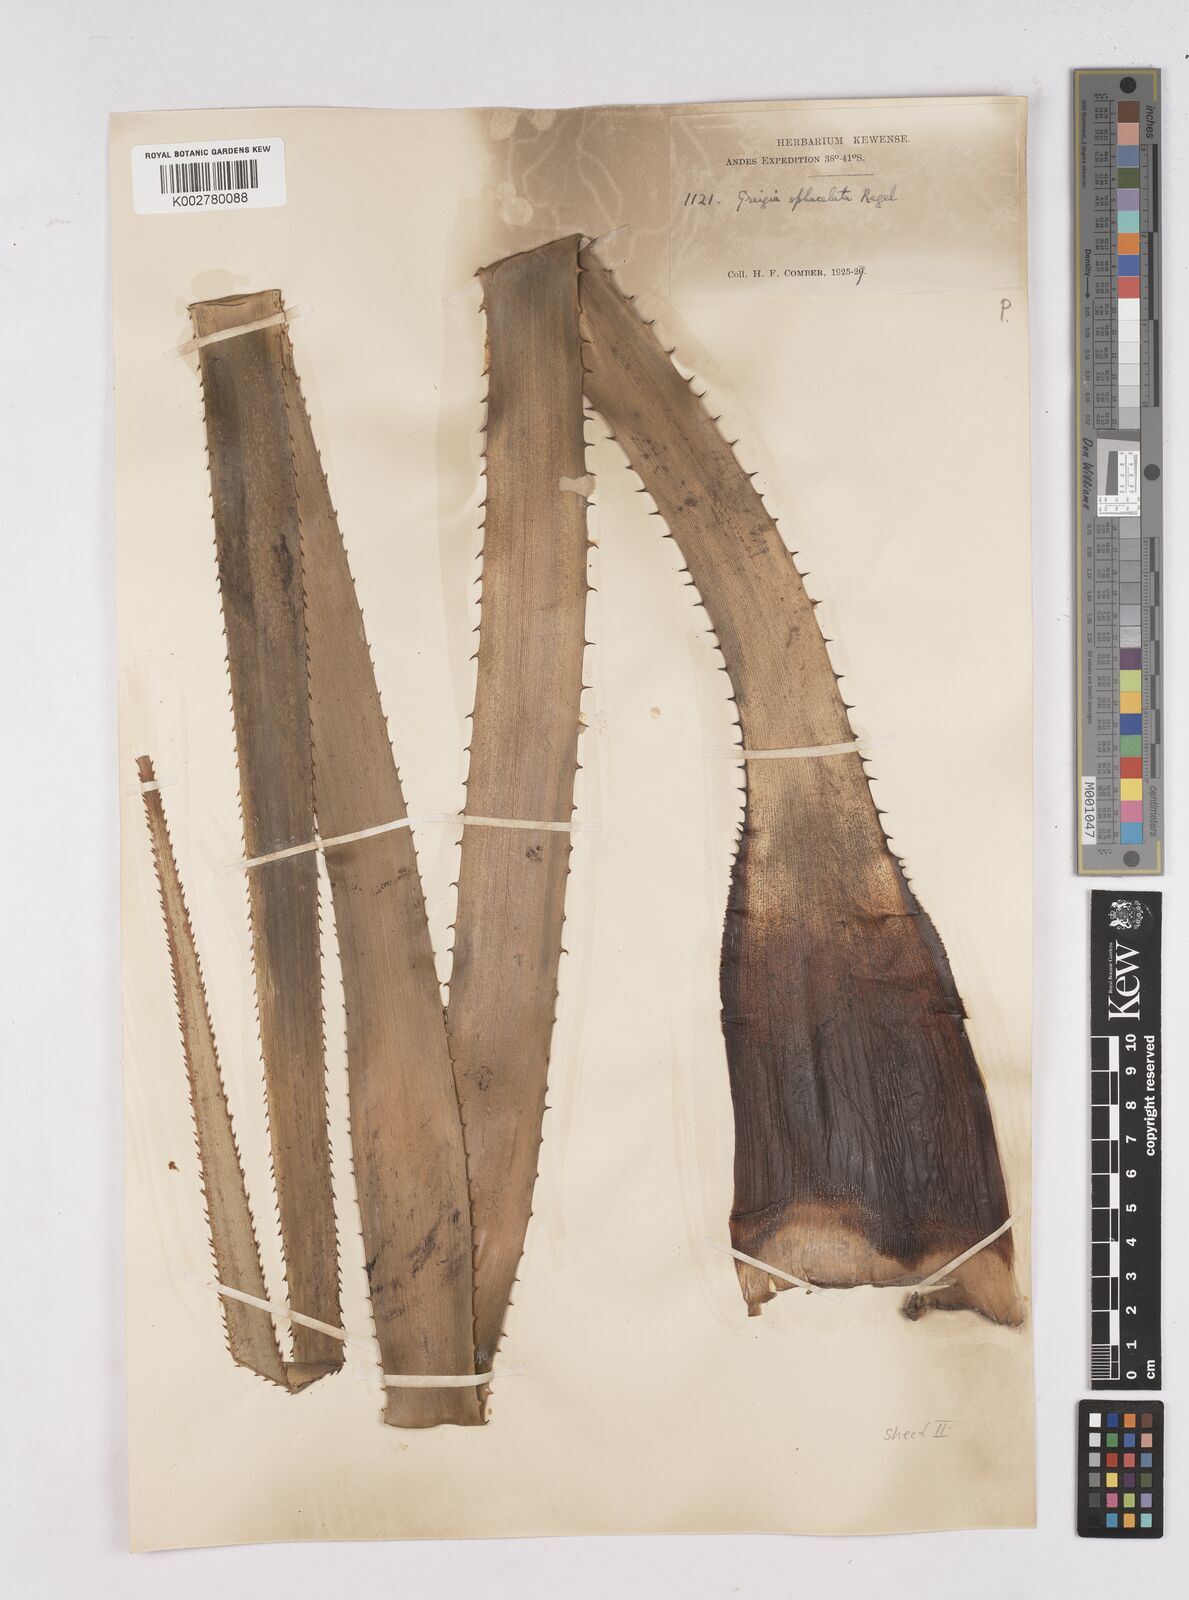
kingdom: Plantae
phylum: Tracheophyta
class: Liliopsida
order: Poales
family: Bromeliaceae
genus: Greigia
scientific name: Greigia sphacelata
